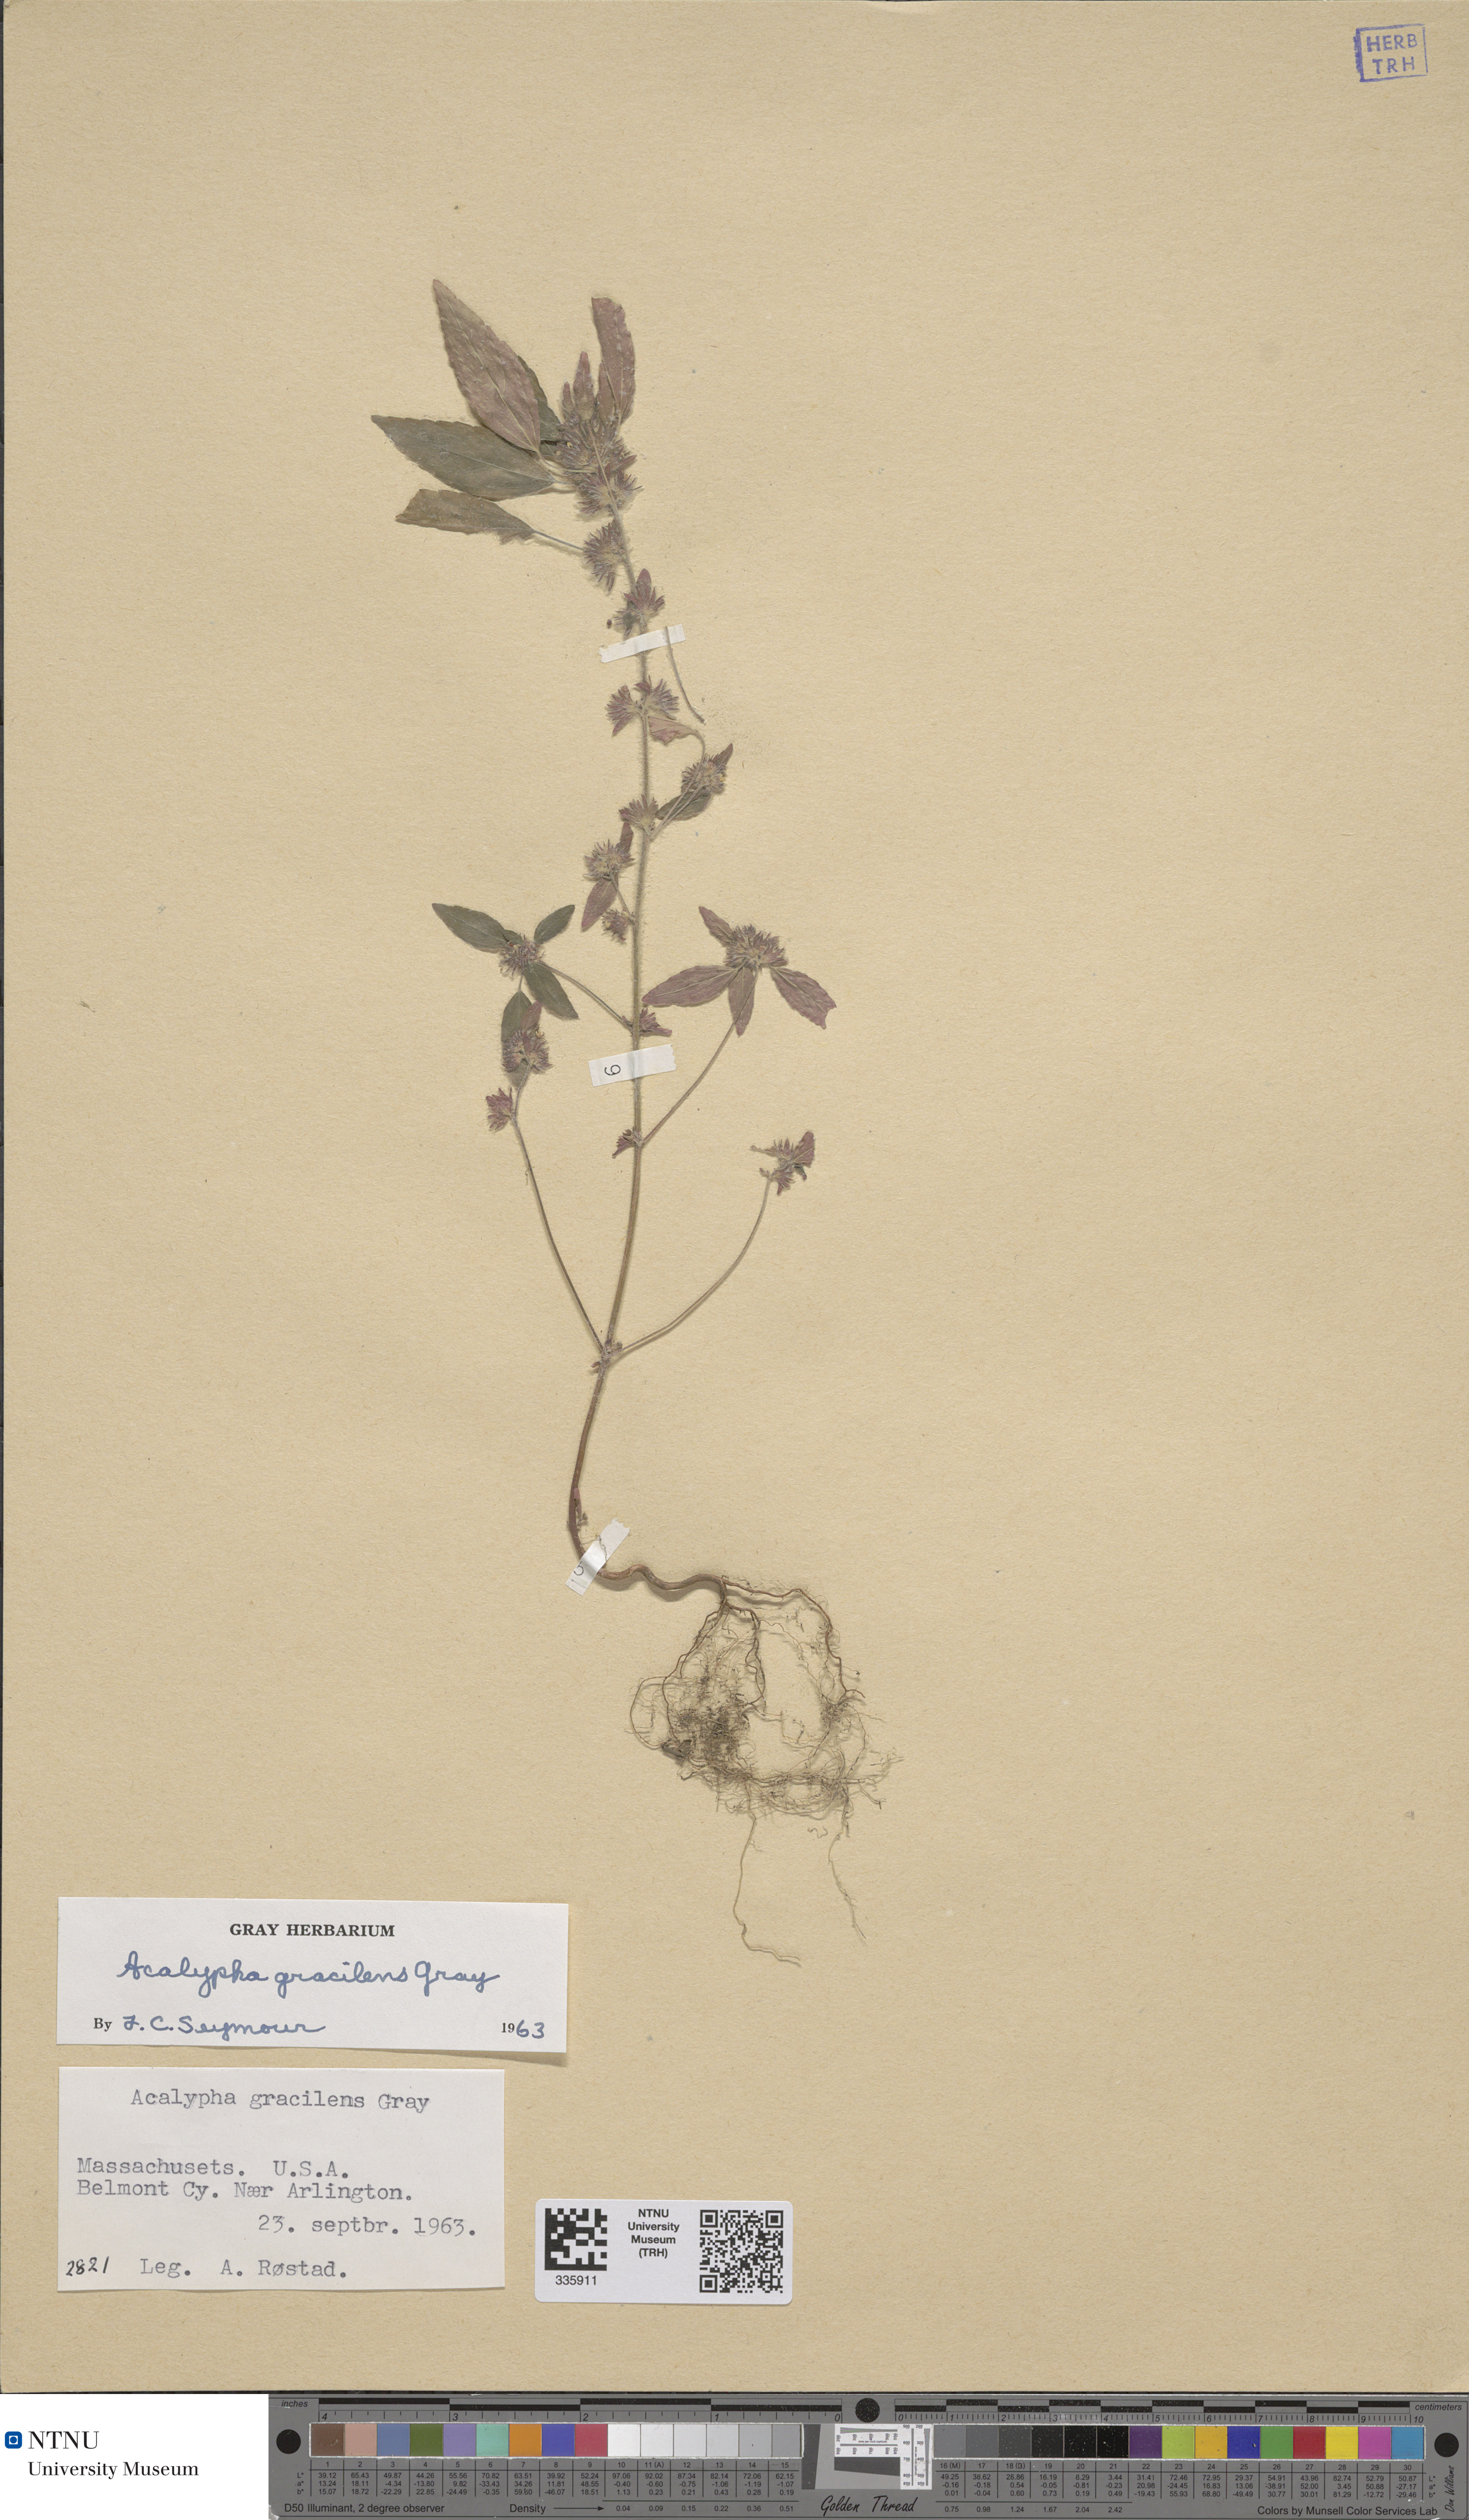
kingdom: Plantae
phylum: Tracheophyta
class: Magnoliopsida
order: Malpighiales
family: Euphorbiaceae
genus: Acalypha
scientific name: Acalypha gracilens
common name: Slender three-seeded mercury
